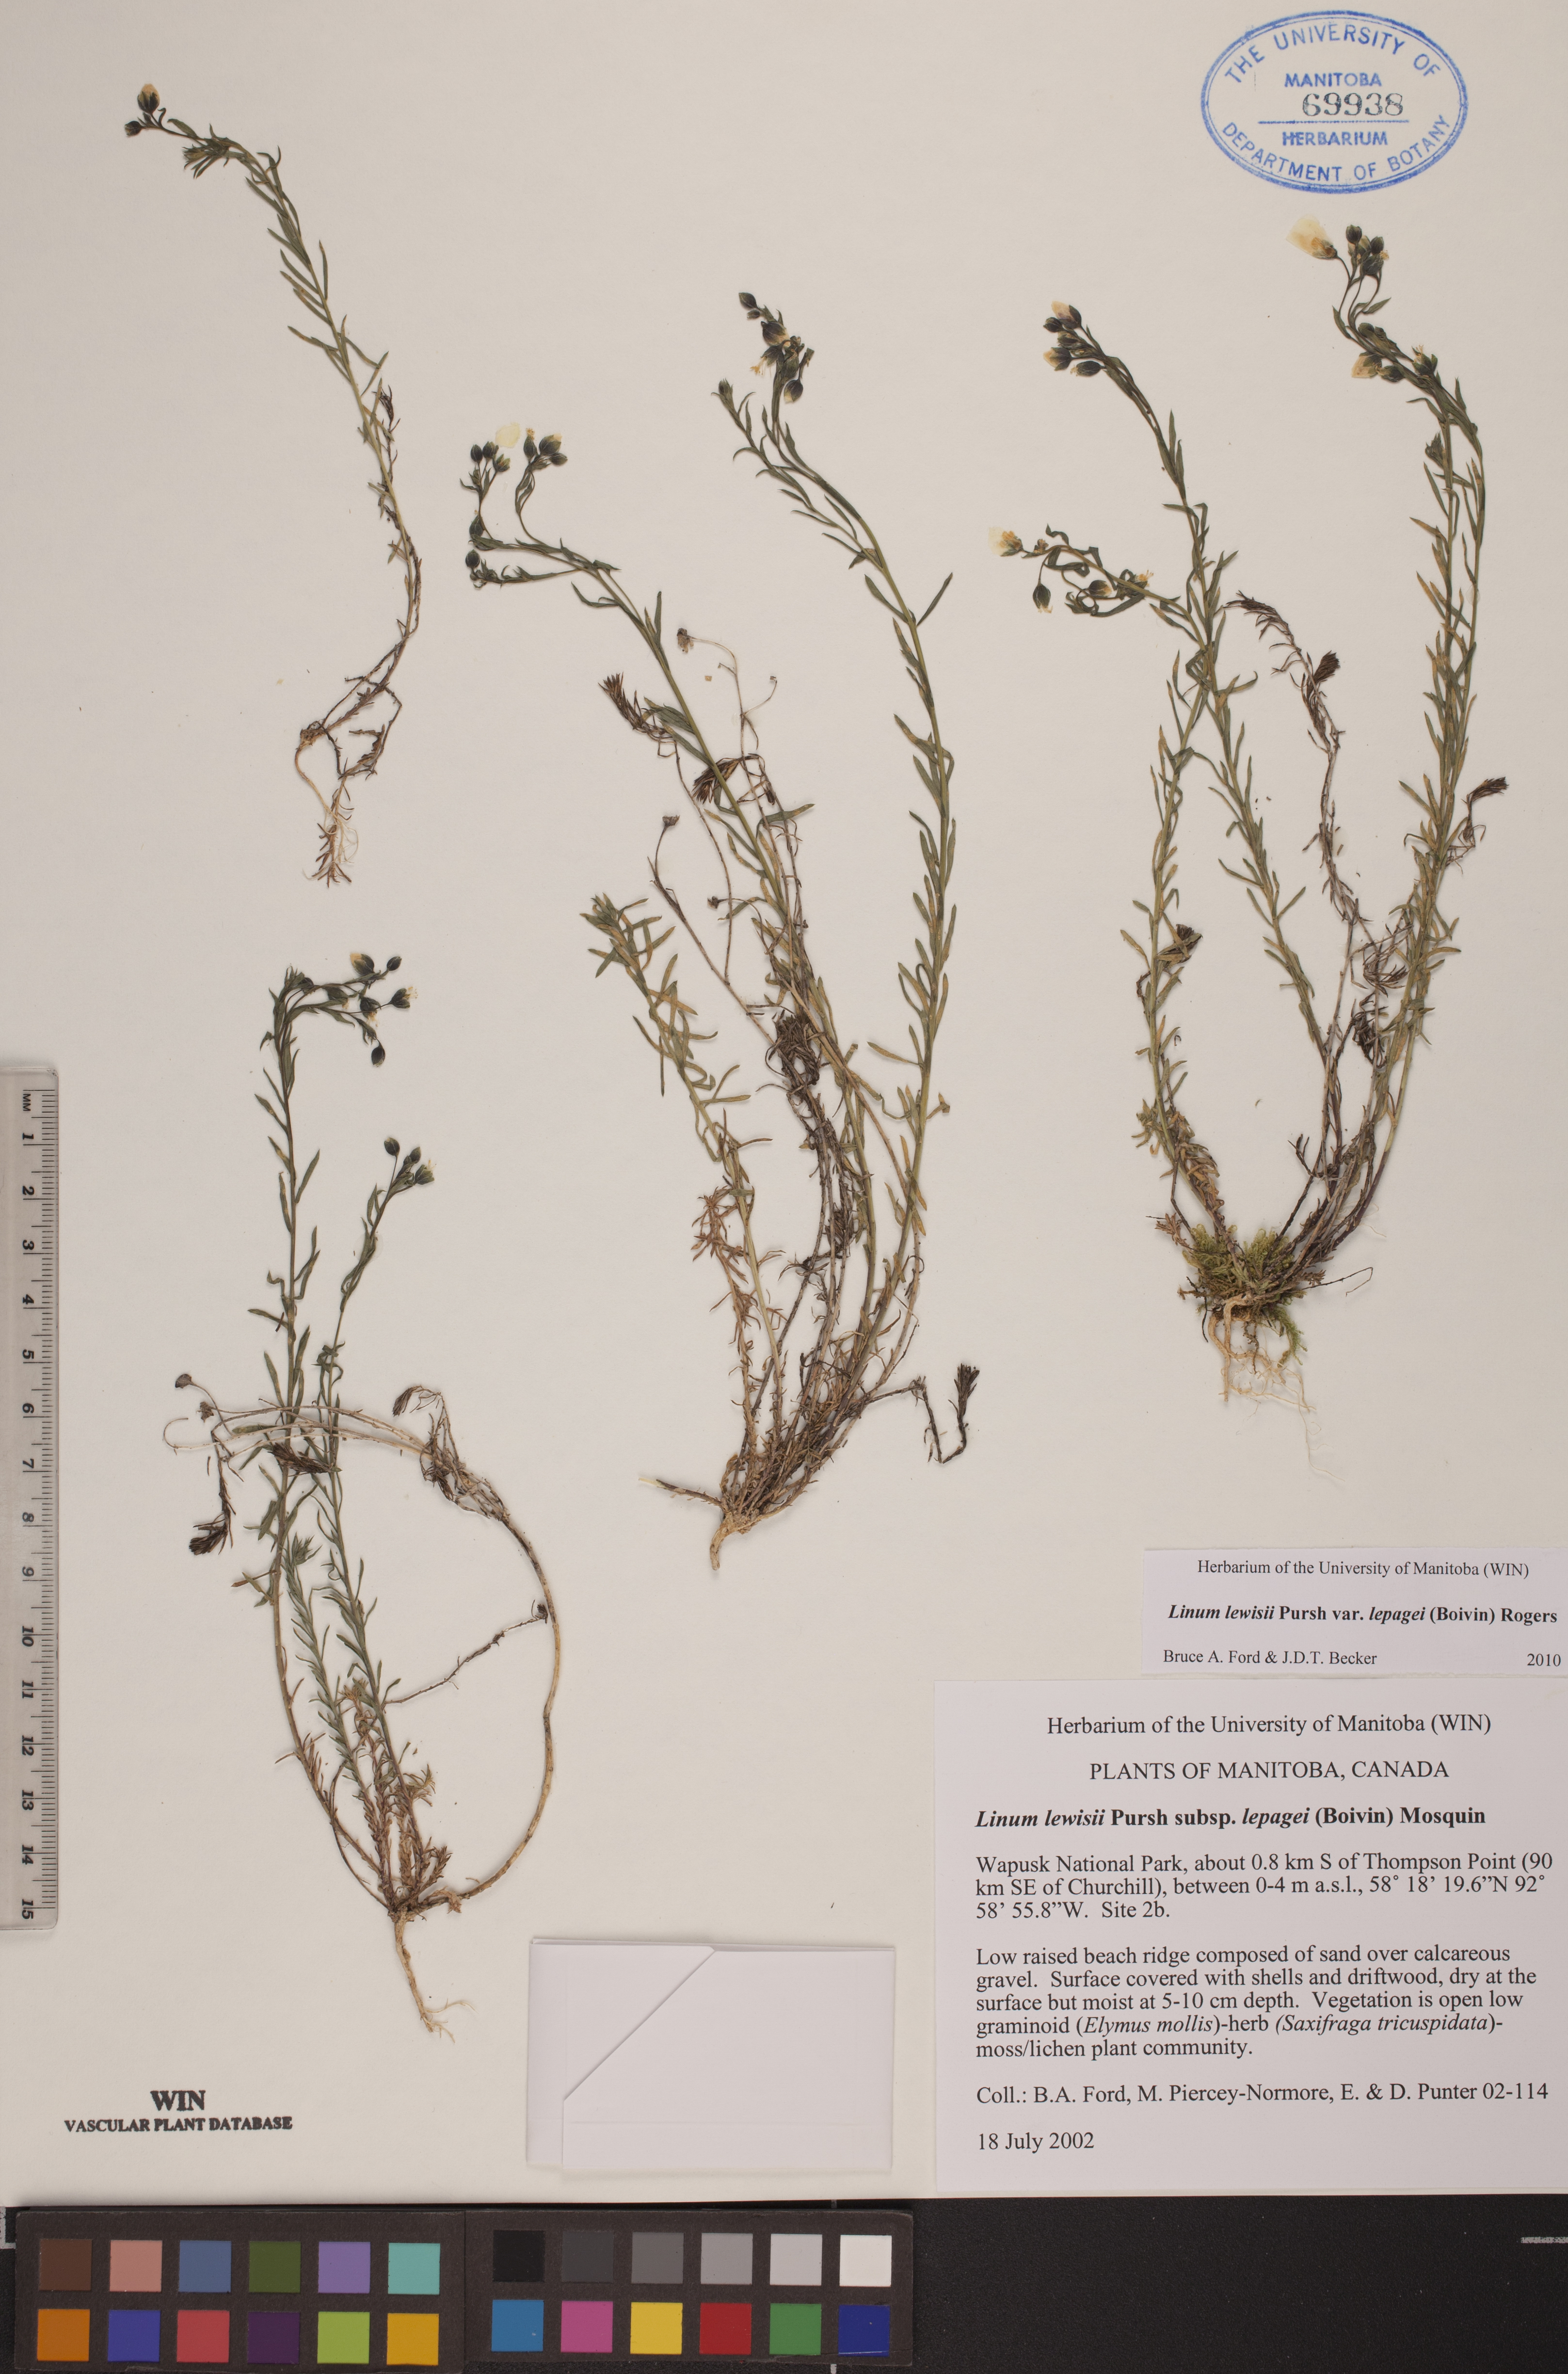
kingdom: Plantae
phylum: Tracheophyta
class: Magnoliopsida
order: Malpighiales
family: Linaceae
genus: Linum
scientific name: Linum lewisii
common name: Prairie flax
